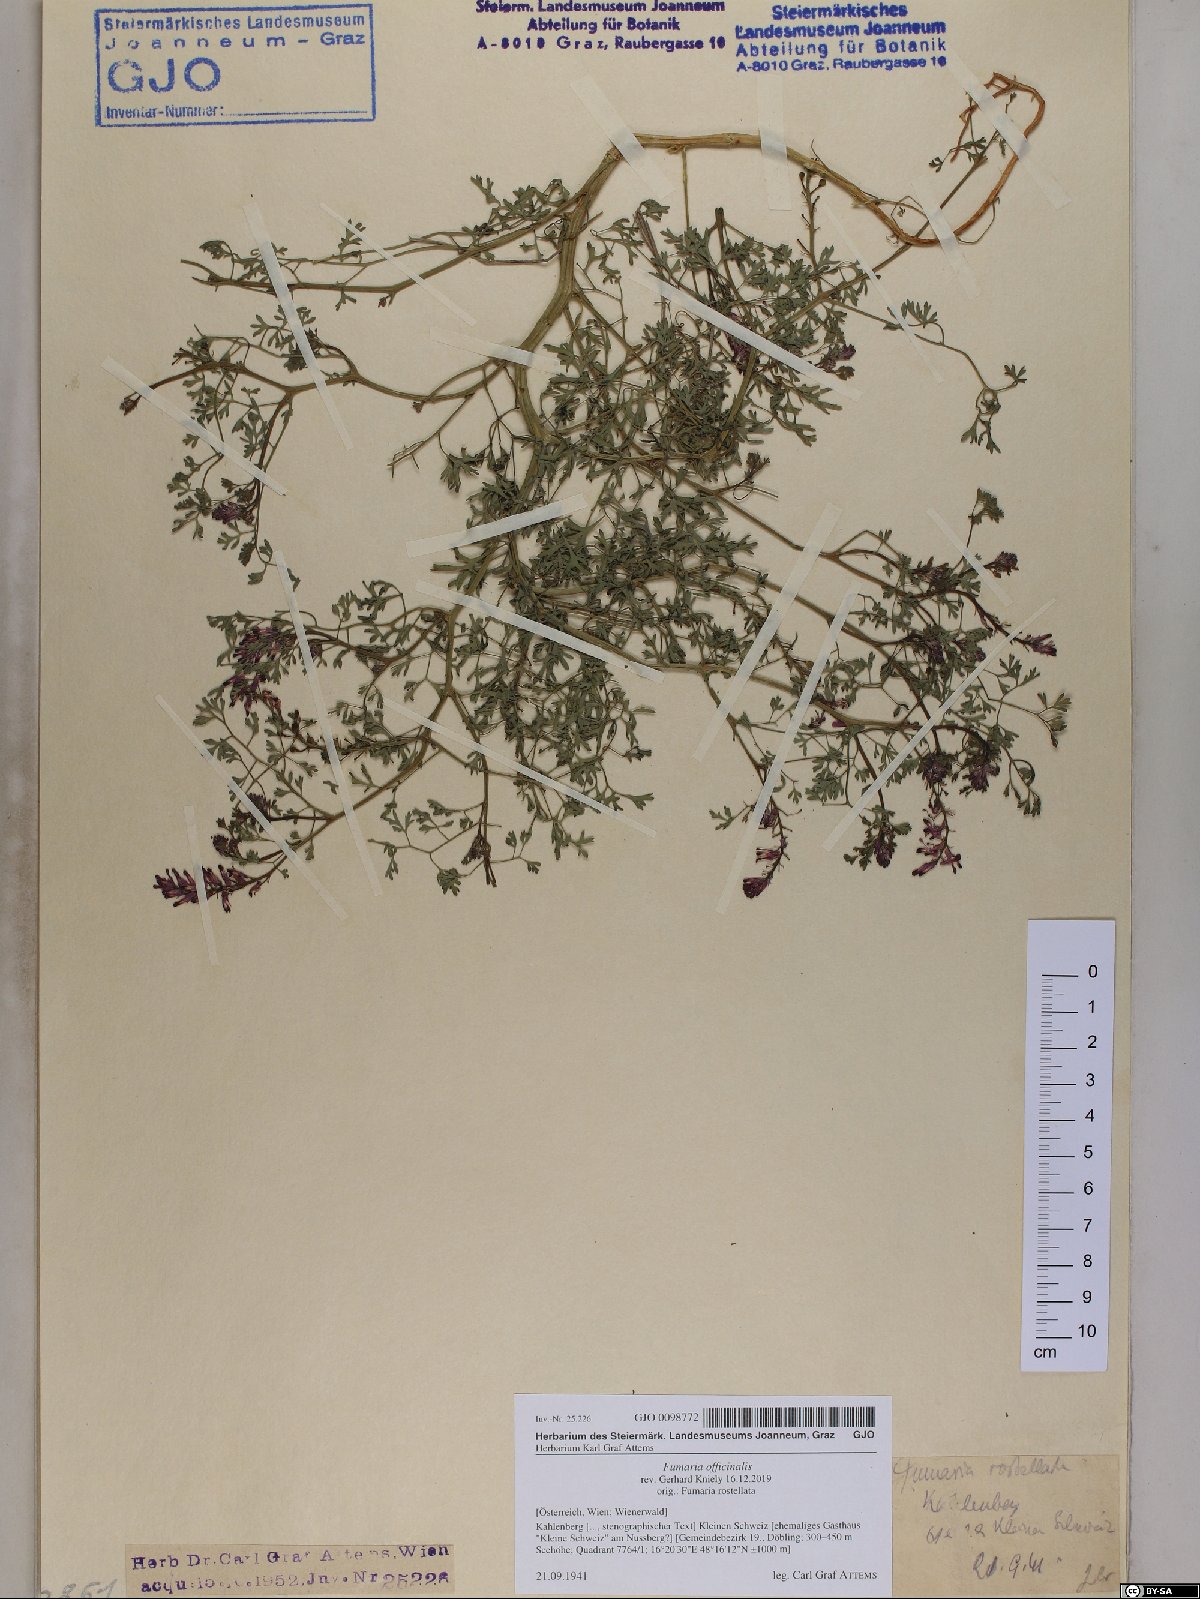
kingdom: Plantae
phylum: Tracheophyta
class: Magnoliopsida
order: Ranunculales
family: Papaveraceae
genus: Fumaria
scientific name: Fumaria officinalis
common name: Common fumitory
